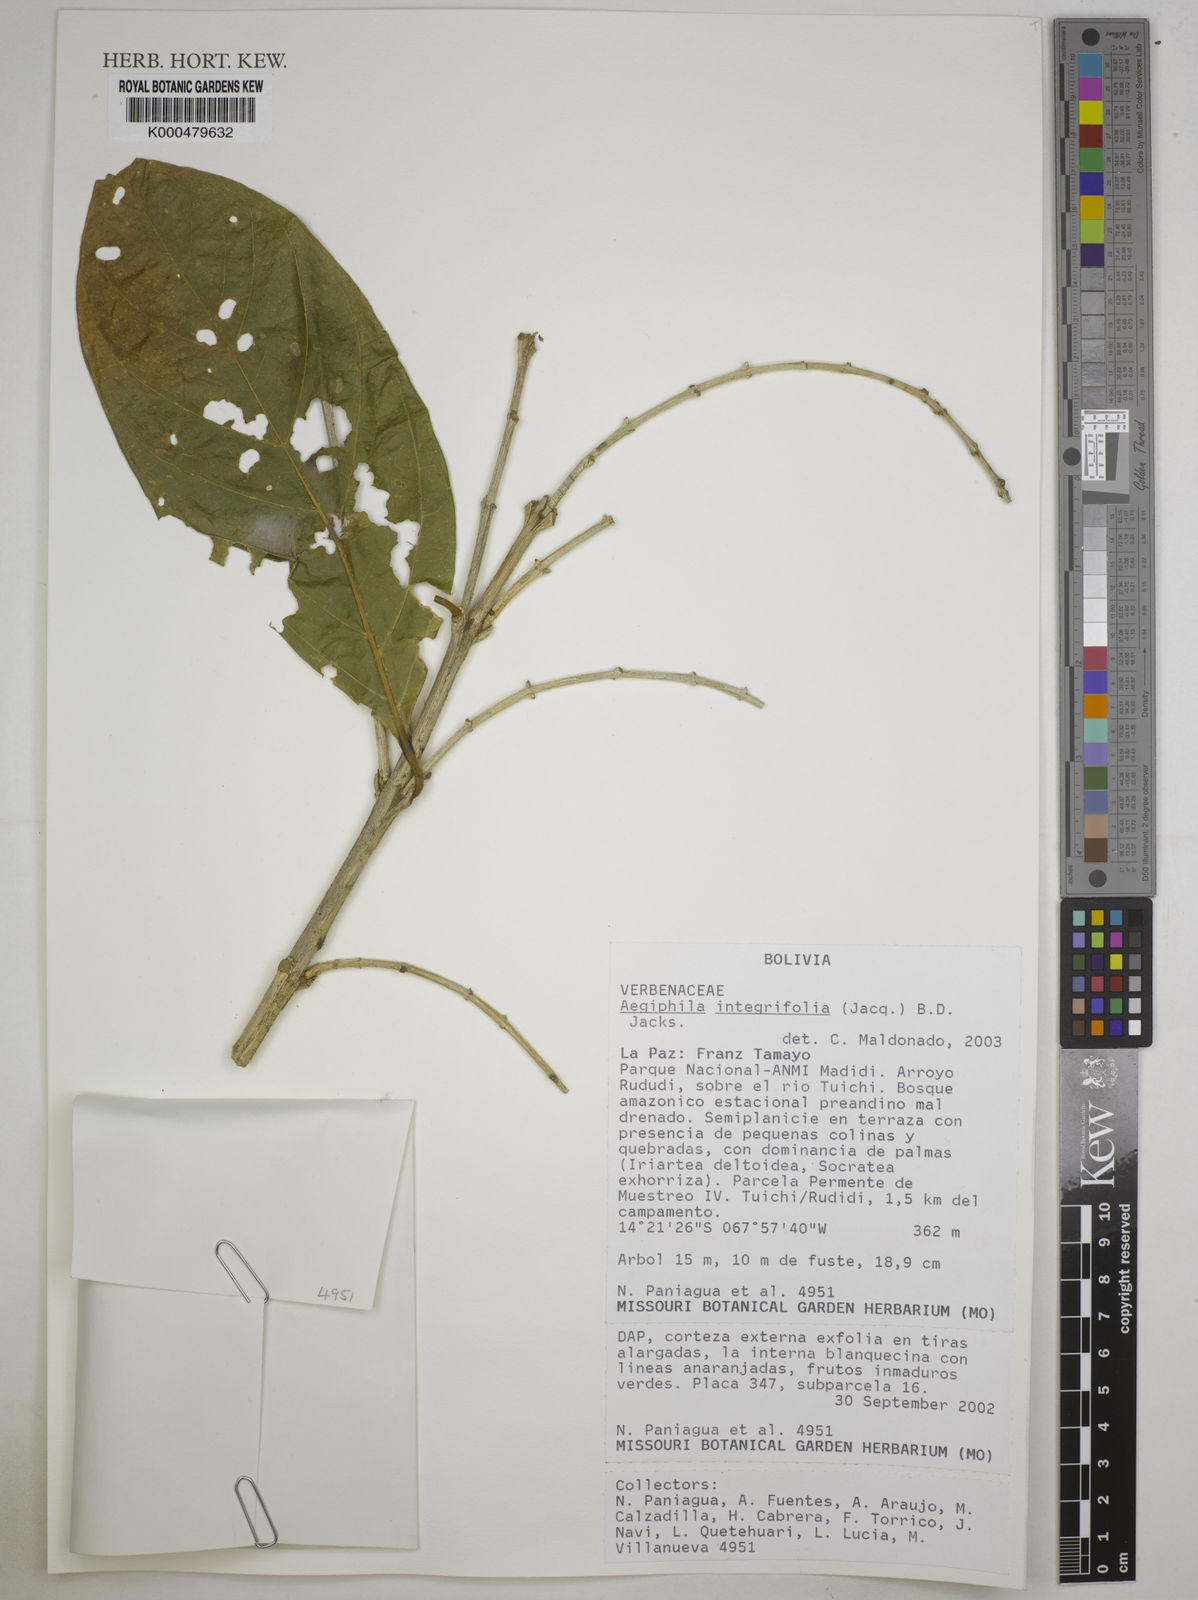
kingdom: Plantae
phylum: Tracheophyta
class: Magnoliopsida
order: Lamiales
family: Lamiaceae
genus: Aegiphila
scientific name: Aegiphila integrifolia
